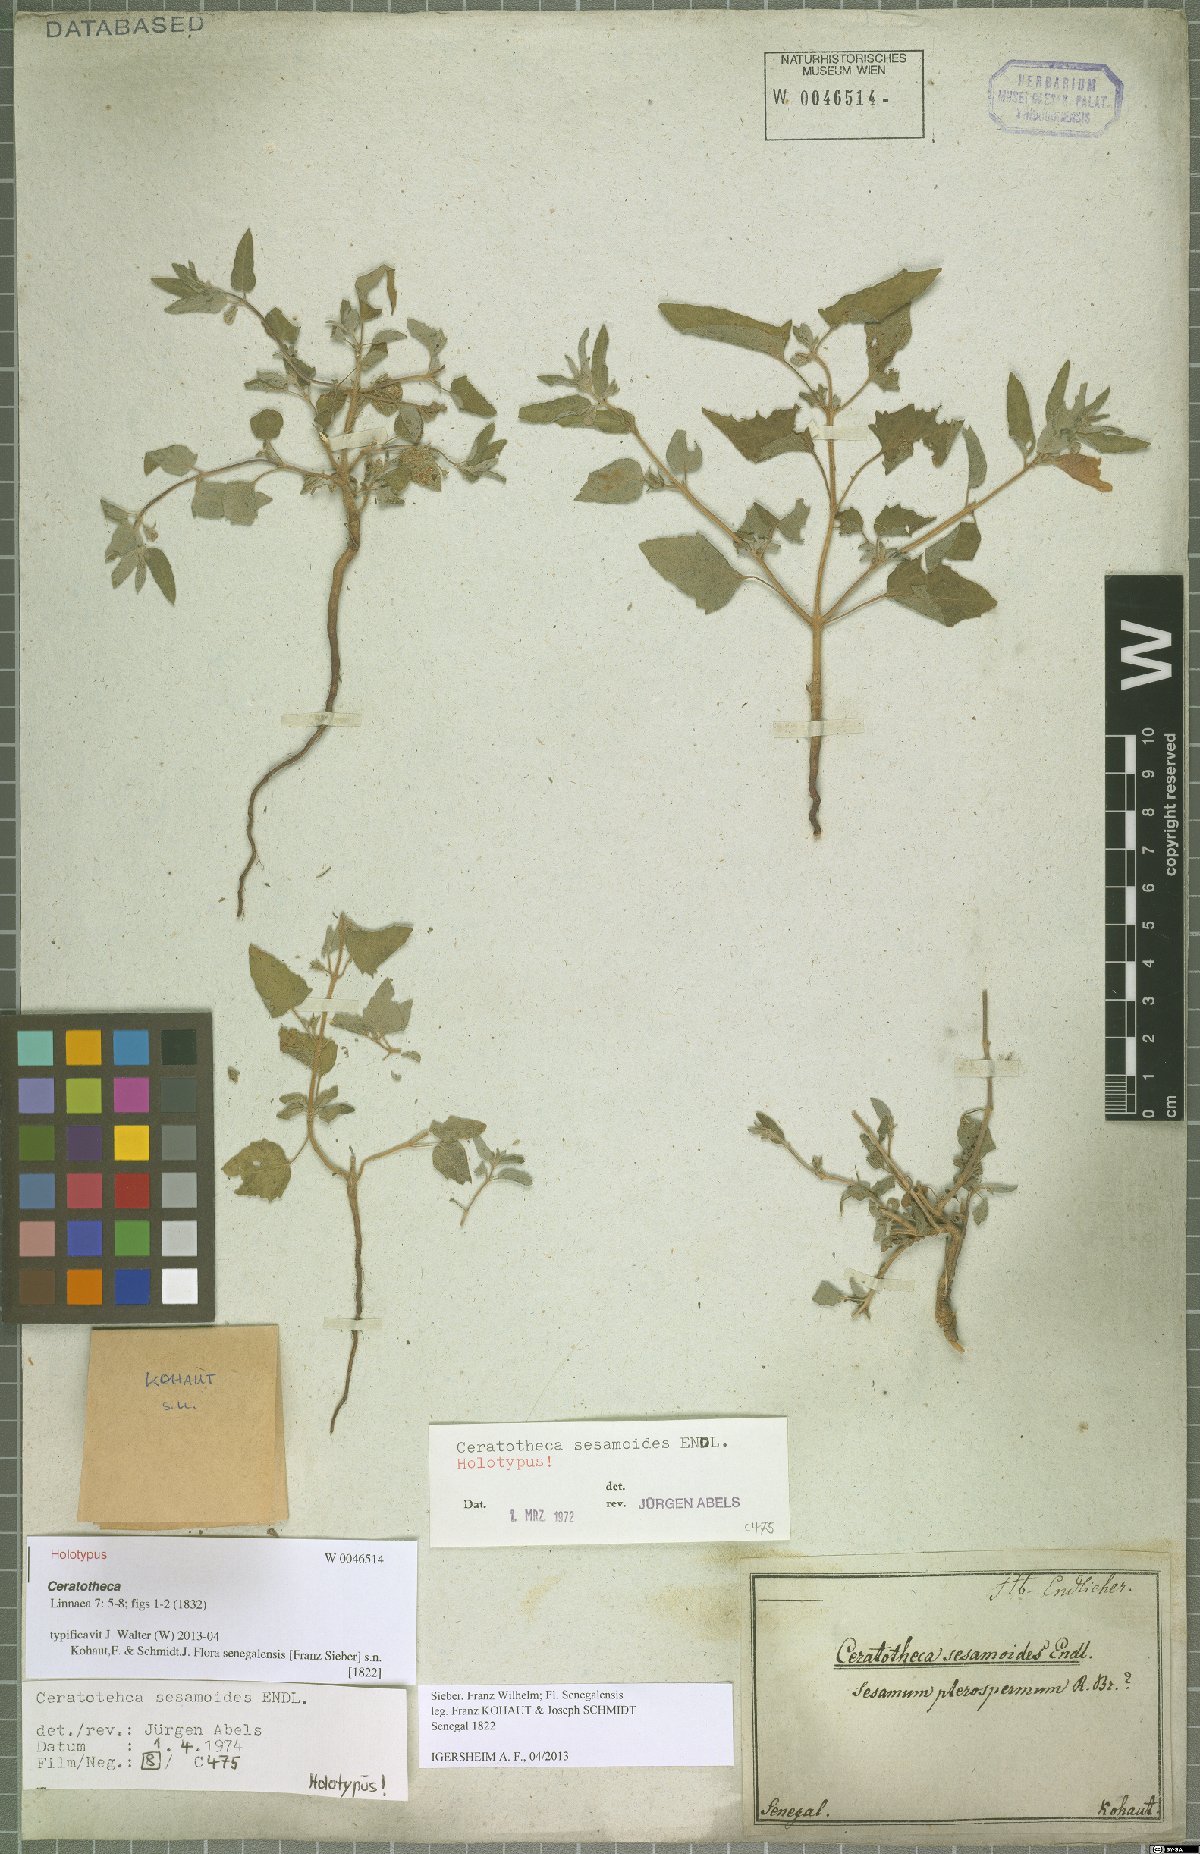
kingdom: Plantae
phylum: Tracheophyta
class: Magnoliopsida
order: Lamiales
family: Pedaliaceae
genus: Sesamum
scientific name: Sesamum sesamoides
